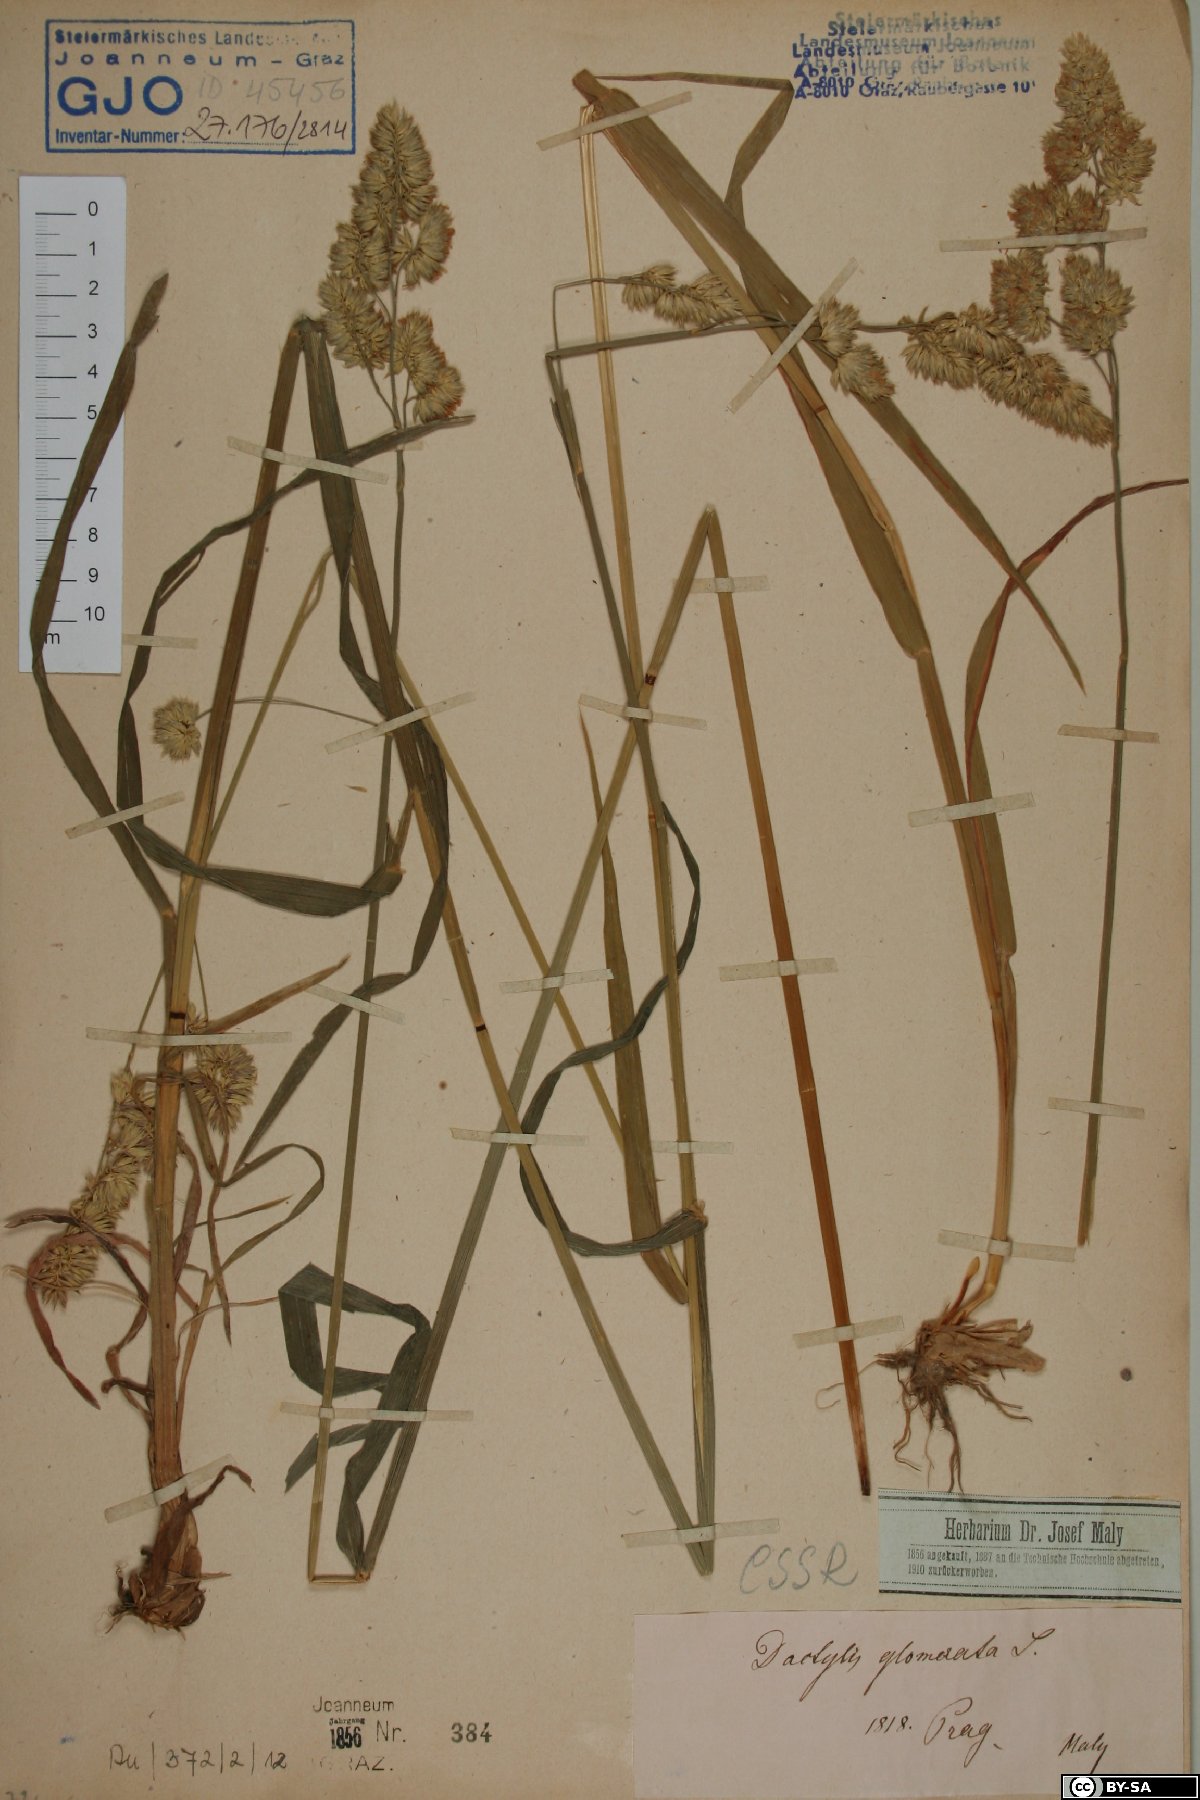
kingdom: Plantae
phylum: Tracheophyta
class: Liliopsida
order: Poales
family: Poaceae
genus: Dactylis
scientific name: Dactylis glomerata
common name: Orchardgrass
